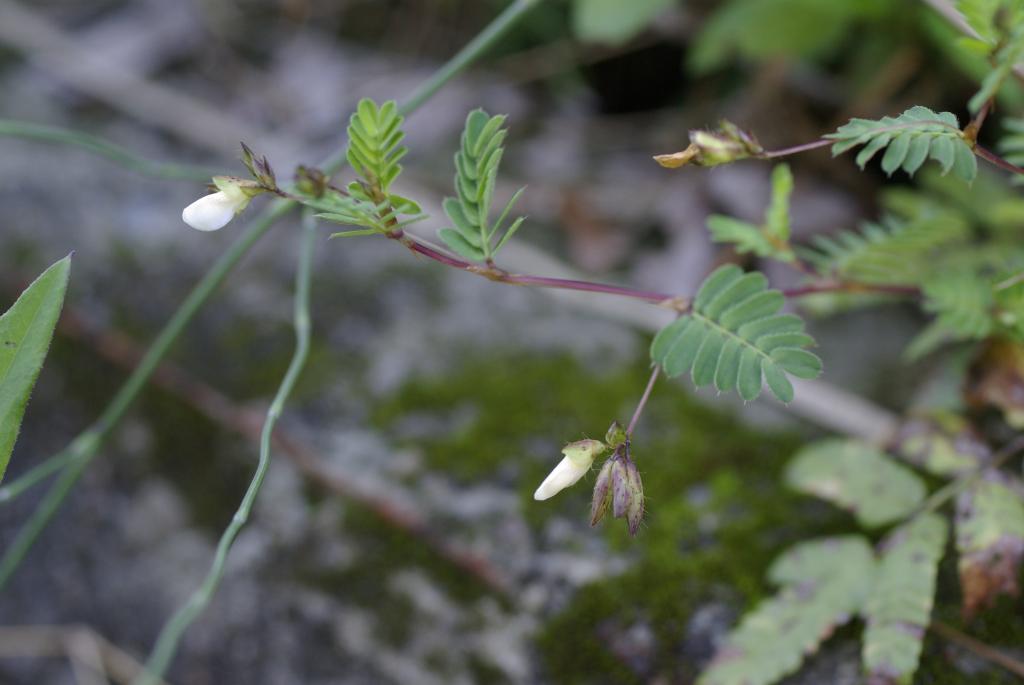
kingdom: Plantae
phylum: Tracheophyta
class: Magnoliopsida
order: Fabales
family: Fabaceae
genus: Smithia
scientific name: Smithia sensitiva
